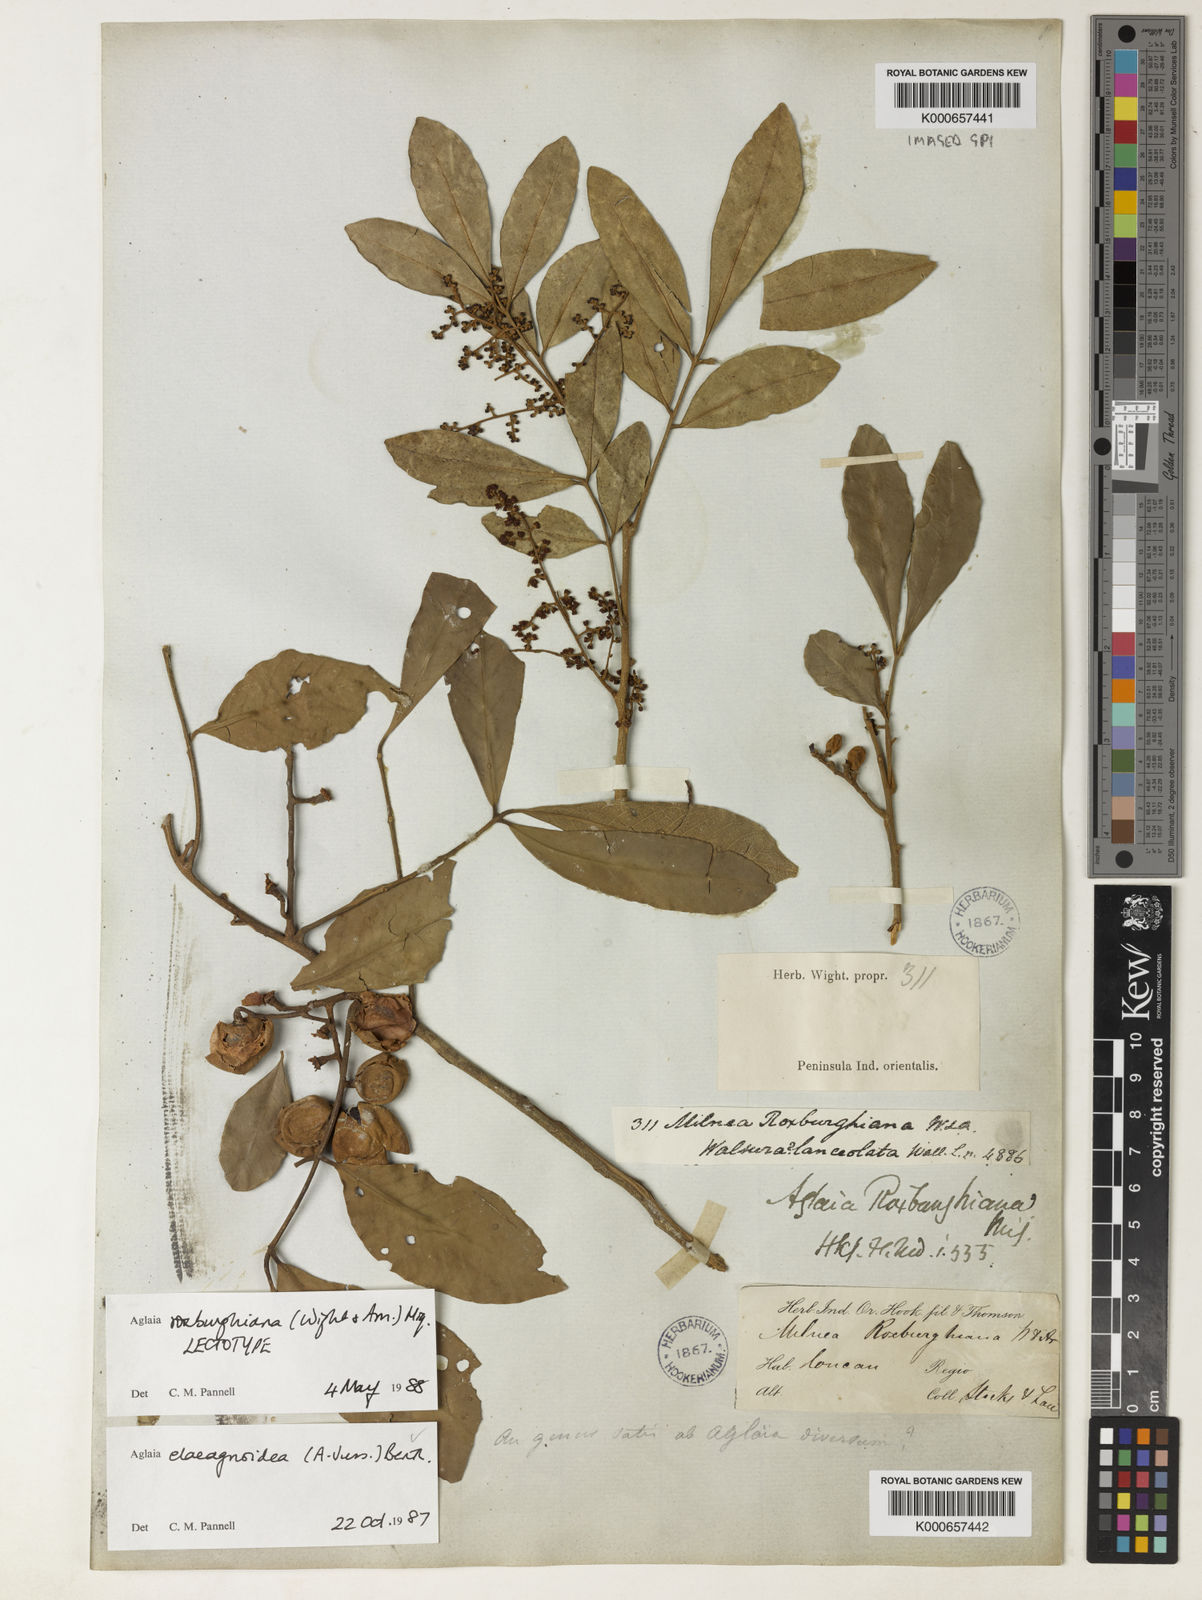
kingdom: Plantae
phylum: Tracheophyta
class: Magnoliopsida
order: Sapindales
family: Meliaceae
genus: Aglaia
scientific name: Aglaia elaeagnoidea
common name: Droopyleaf
